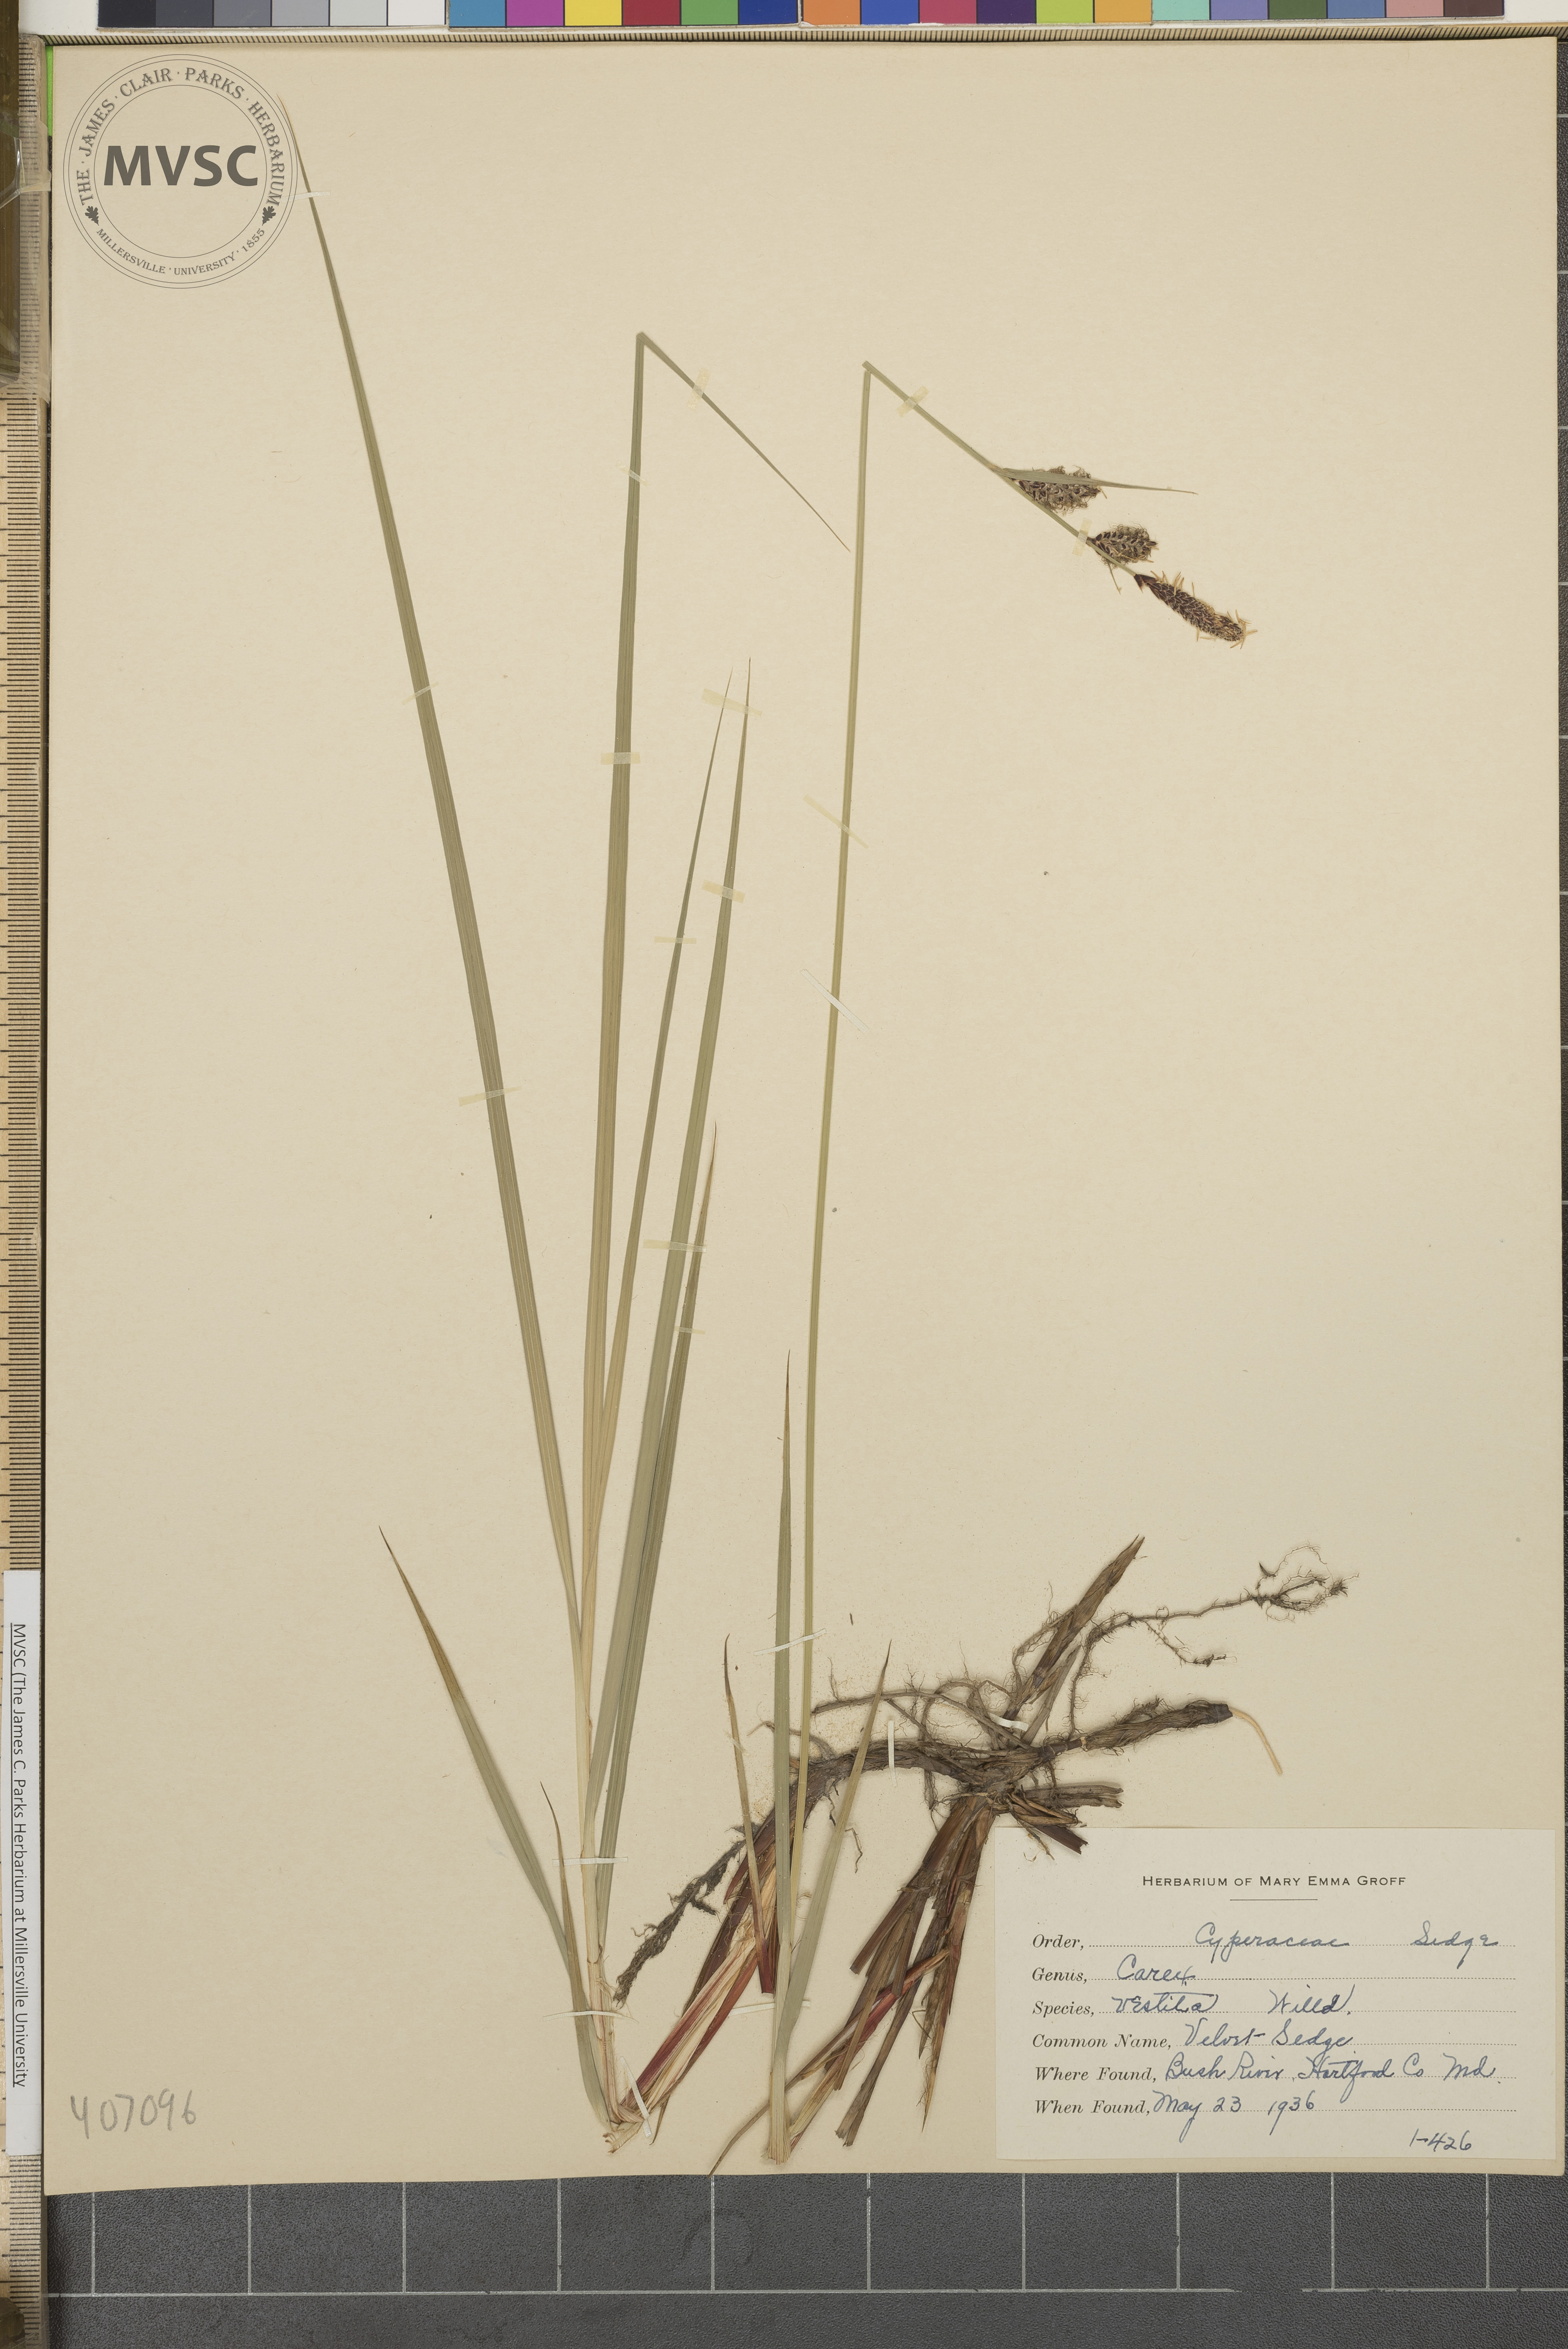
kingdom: Plantae
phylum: Tracheophyta
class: Liliopsida
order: Poales
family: Cyperaceae
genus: Carex
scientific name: Carex vestita
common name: Velvet Sedge
